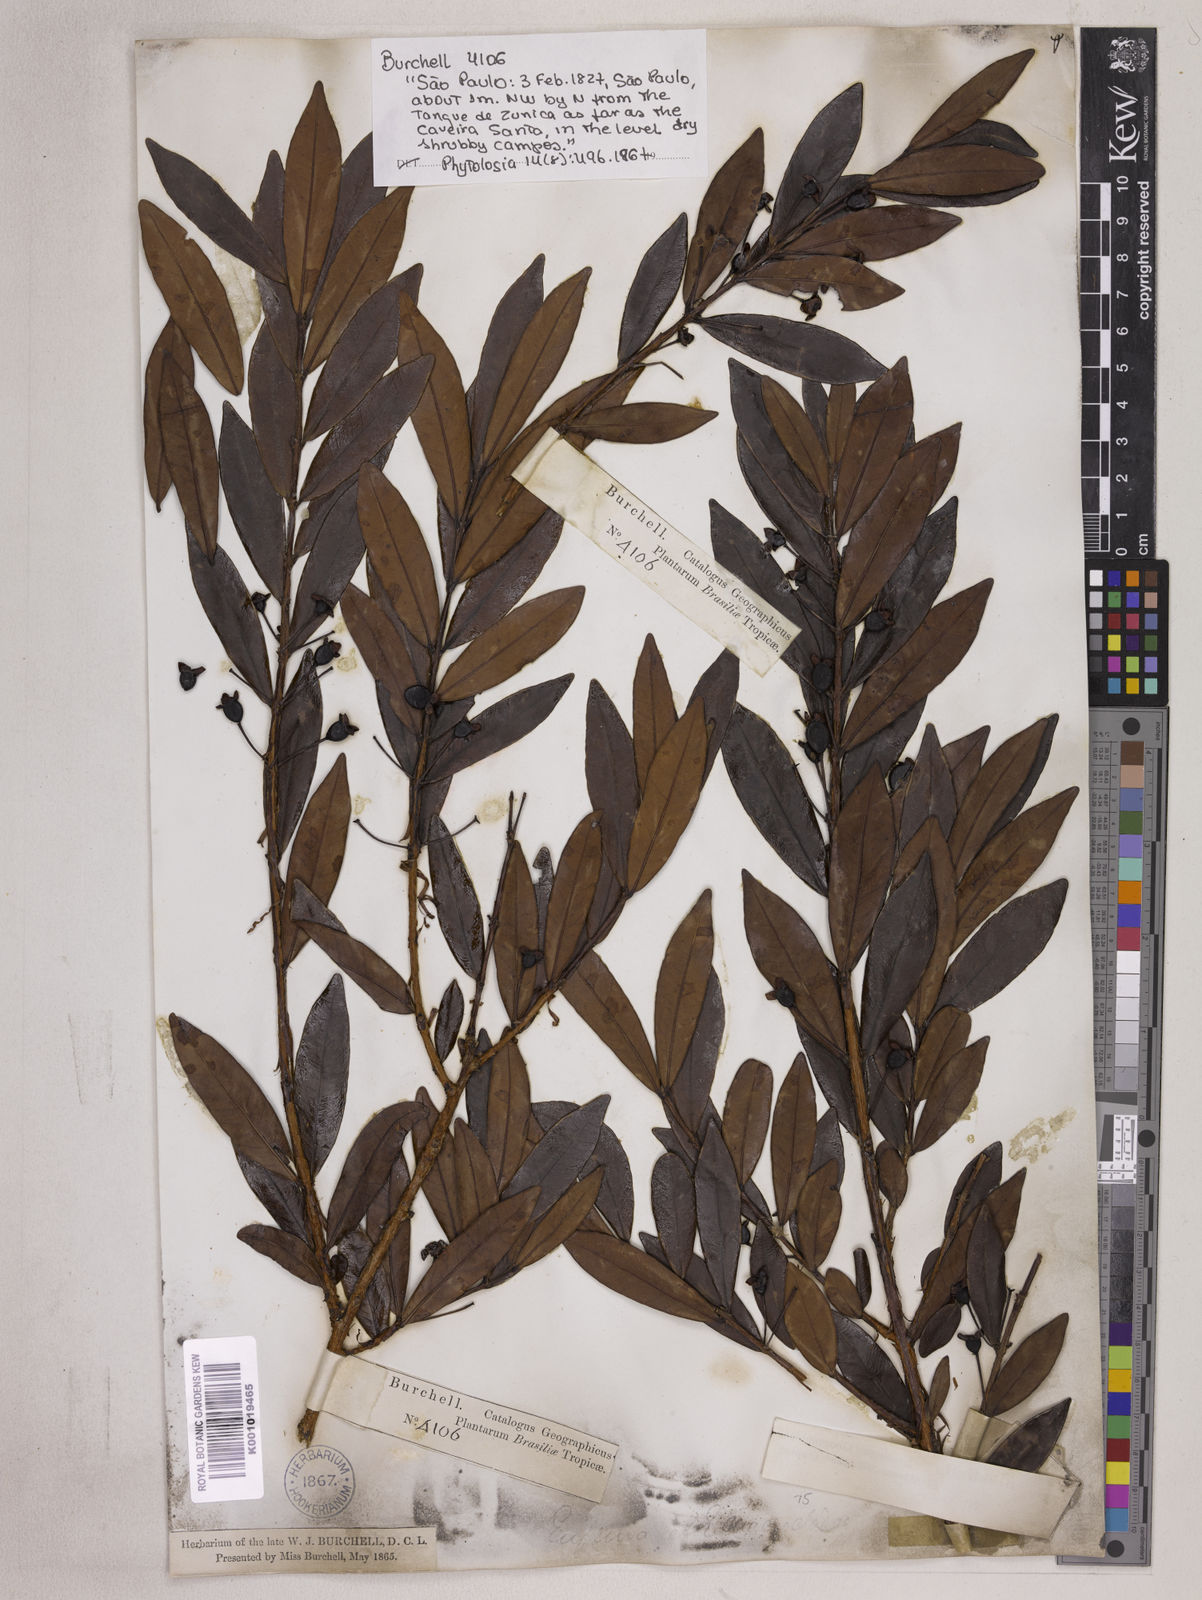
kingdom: Plantae
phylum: Tracheophyta
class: Magnoliopsida
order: Myrtales
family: Myrtaceae
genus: Eugenia
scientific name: Eugenia punicifolia
